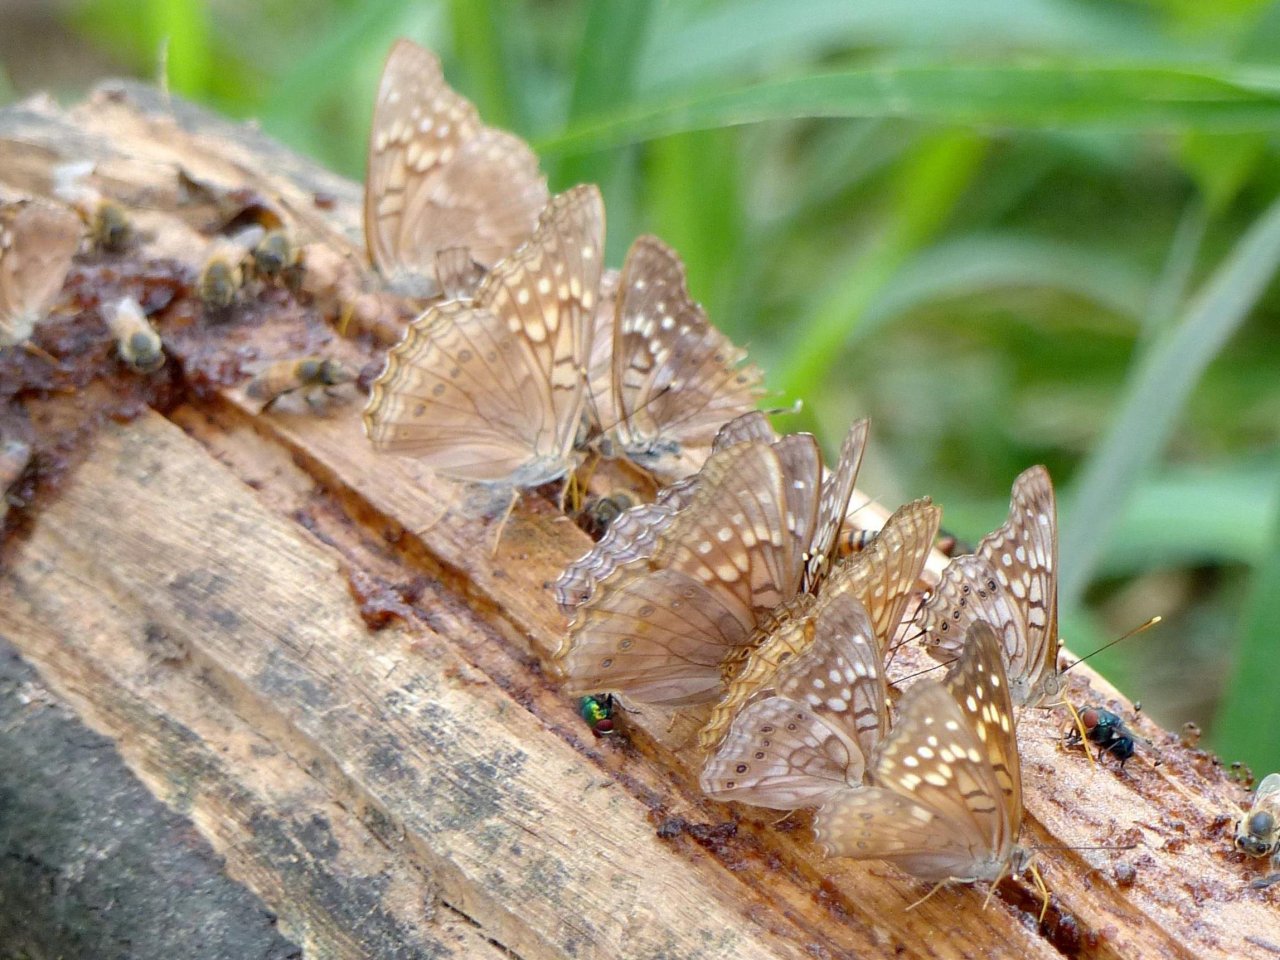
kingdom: Animalia
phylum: Arthropoda
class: Insecta
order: Lepidoptera
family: Nymphalidae
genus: Asterocampa
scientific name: Asterocampa clyton
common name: Tawny Emperor
